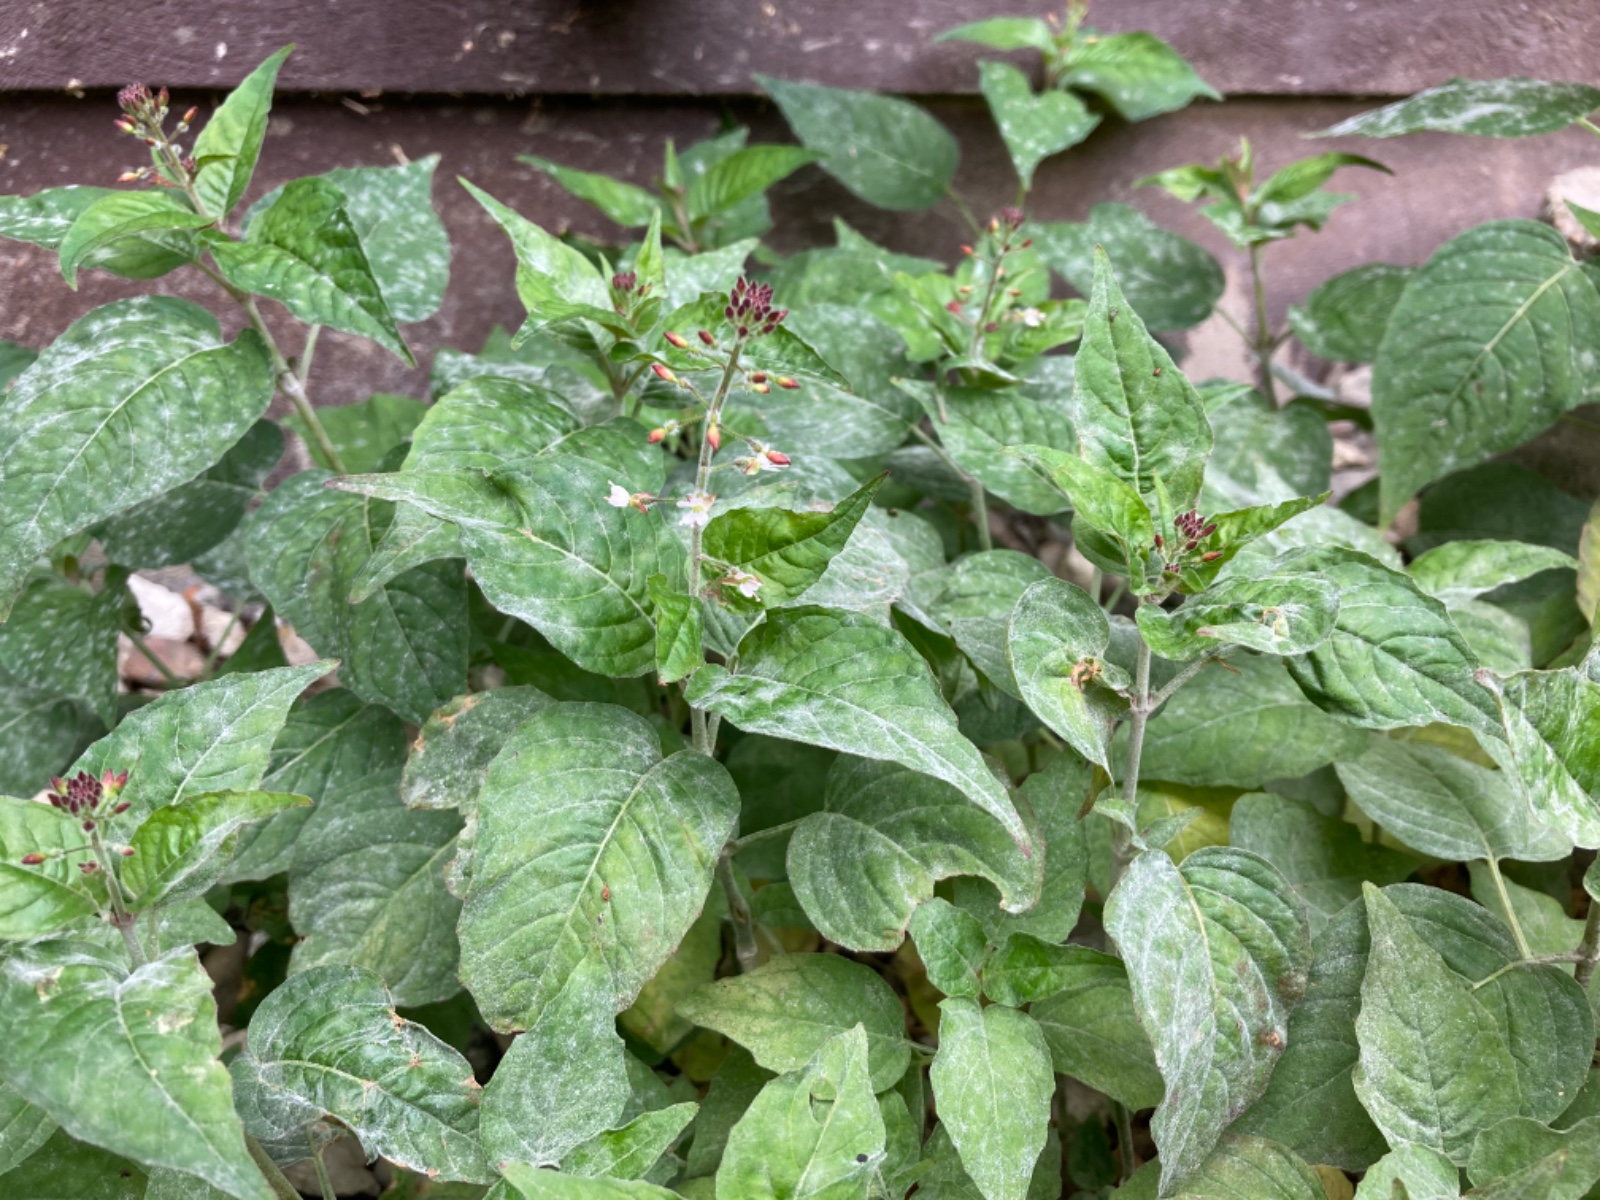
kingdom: Fungi
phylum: Ascomycota
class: Leotiomycetes
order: Helotiales
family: Erysiphaceae
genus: Erysiphe
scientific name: Erysiphe circaeae
